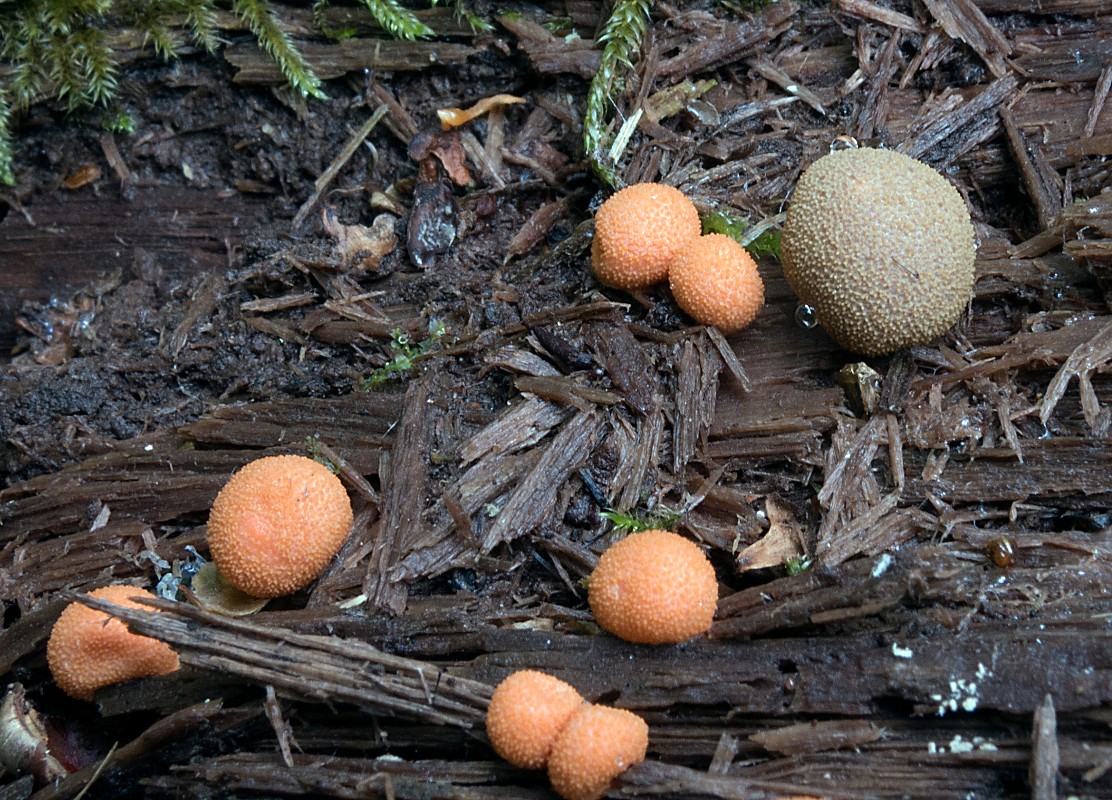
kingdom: Protozoa
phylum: Mycetozoa
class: Myxomycetes
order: Cribrariales
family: Tubiferaceae
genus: Lycogala
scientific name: Lycogala epidendrum
